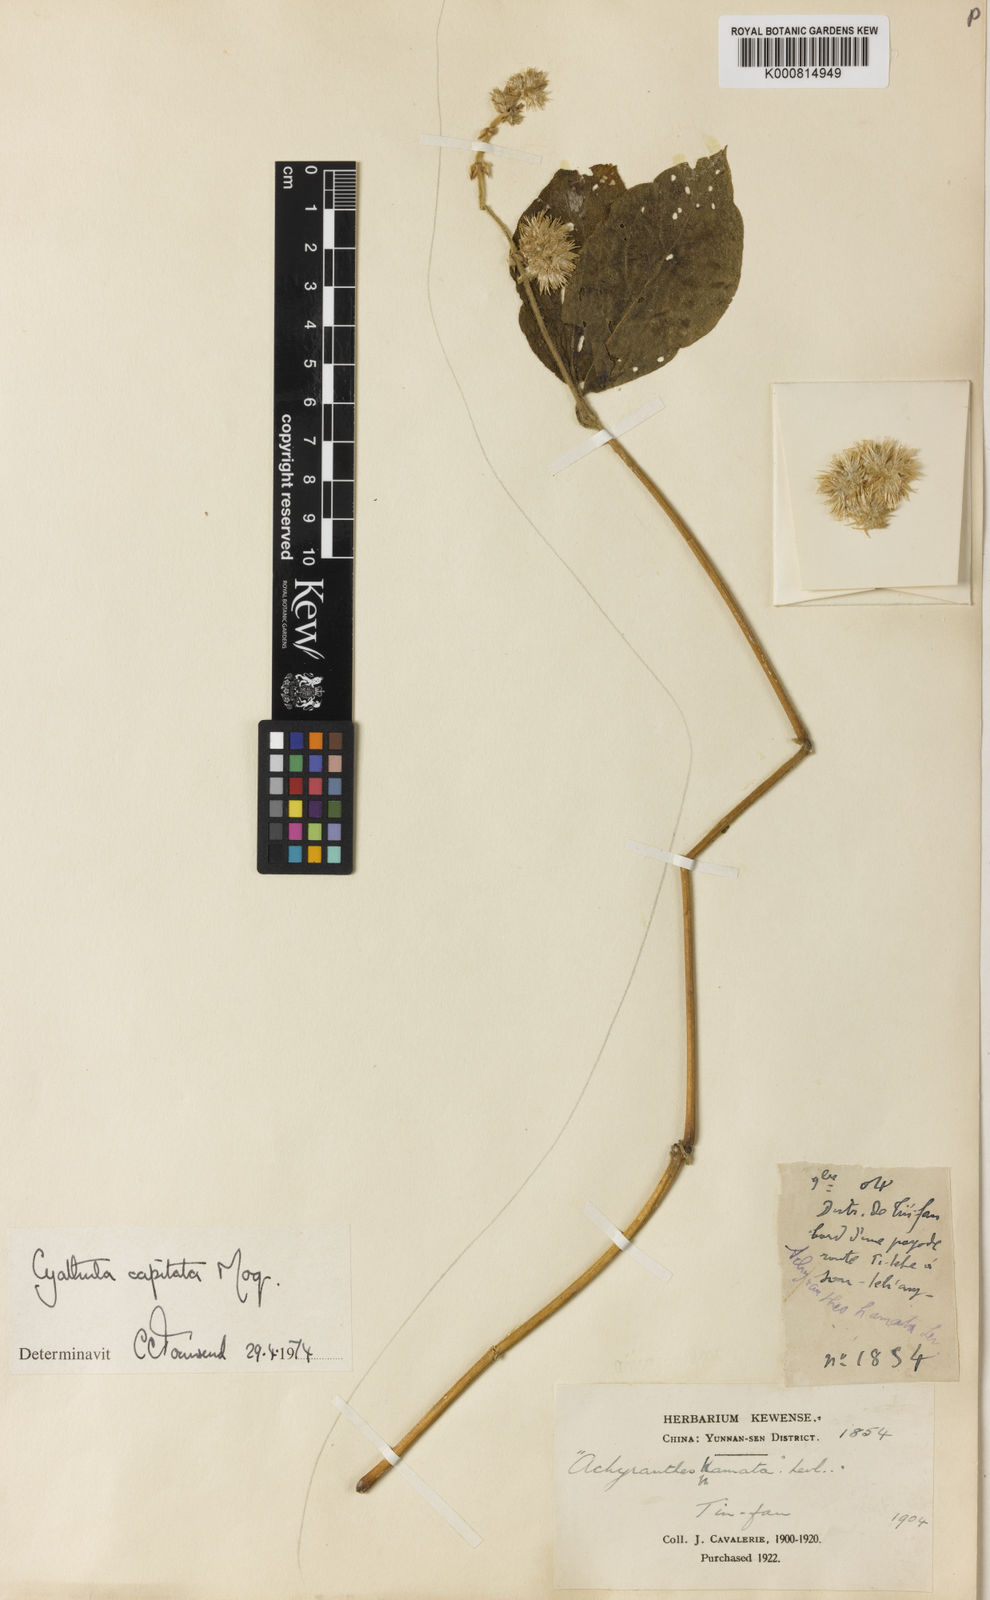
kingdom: Plantae
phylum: Tracheophyta
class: Magnoliopsida
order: Caryophyllales
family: Amaranthaceae
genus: Cyathula
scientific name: Cyathula capitata
